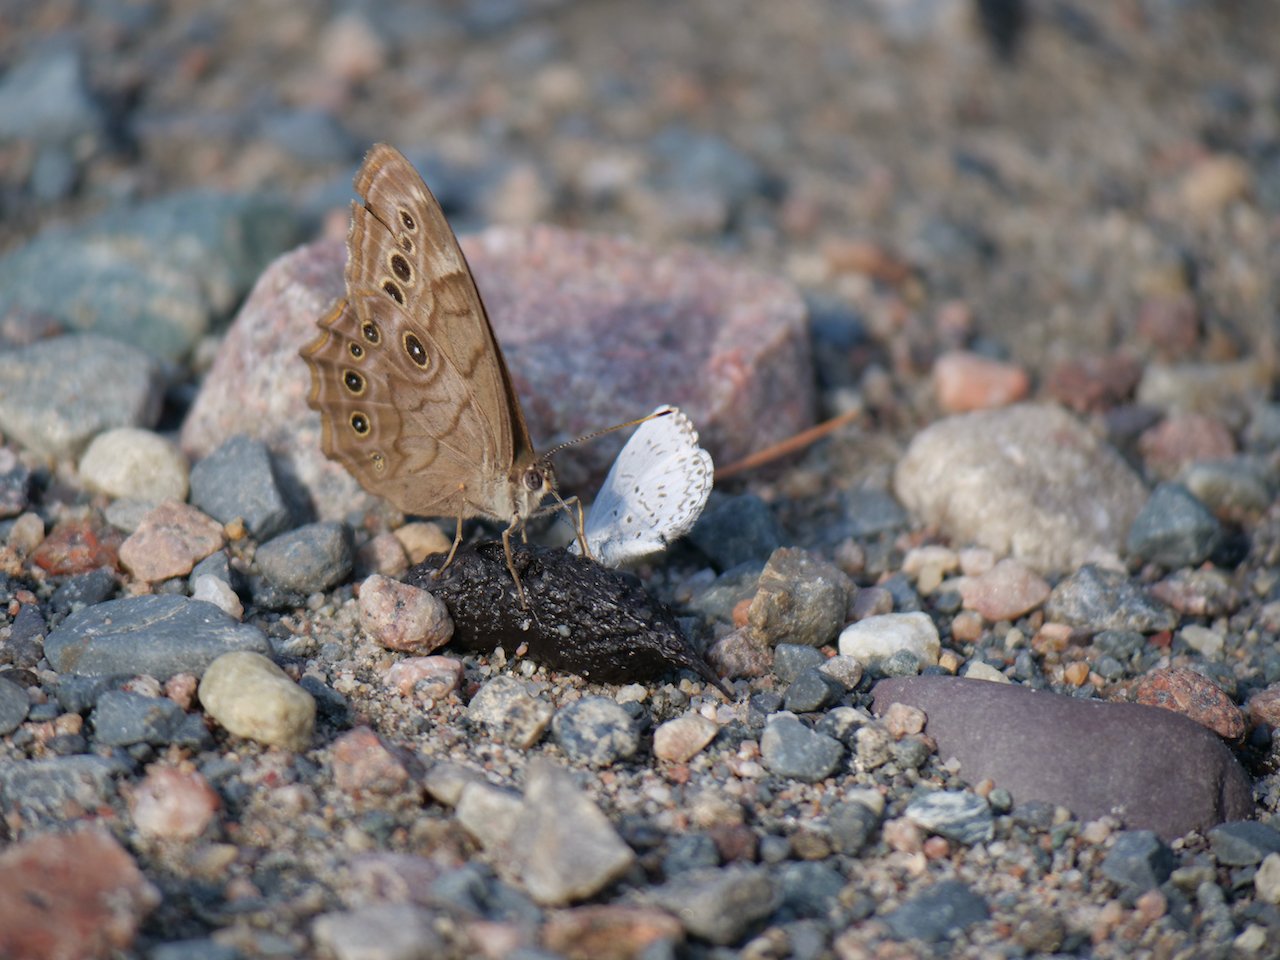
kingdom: Animalia
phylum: Arthropoda
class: Insecta
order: Lepidoptera
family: Nymphalidae
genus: Lethe
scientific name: Lethe anthedon
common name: Northern Pearly-Eye
